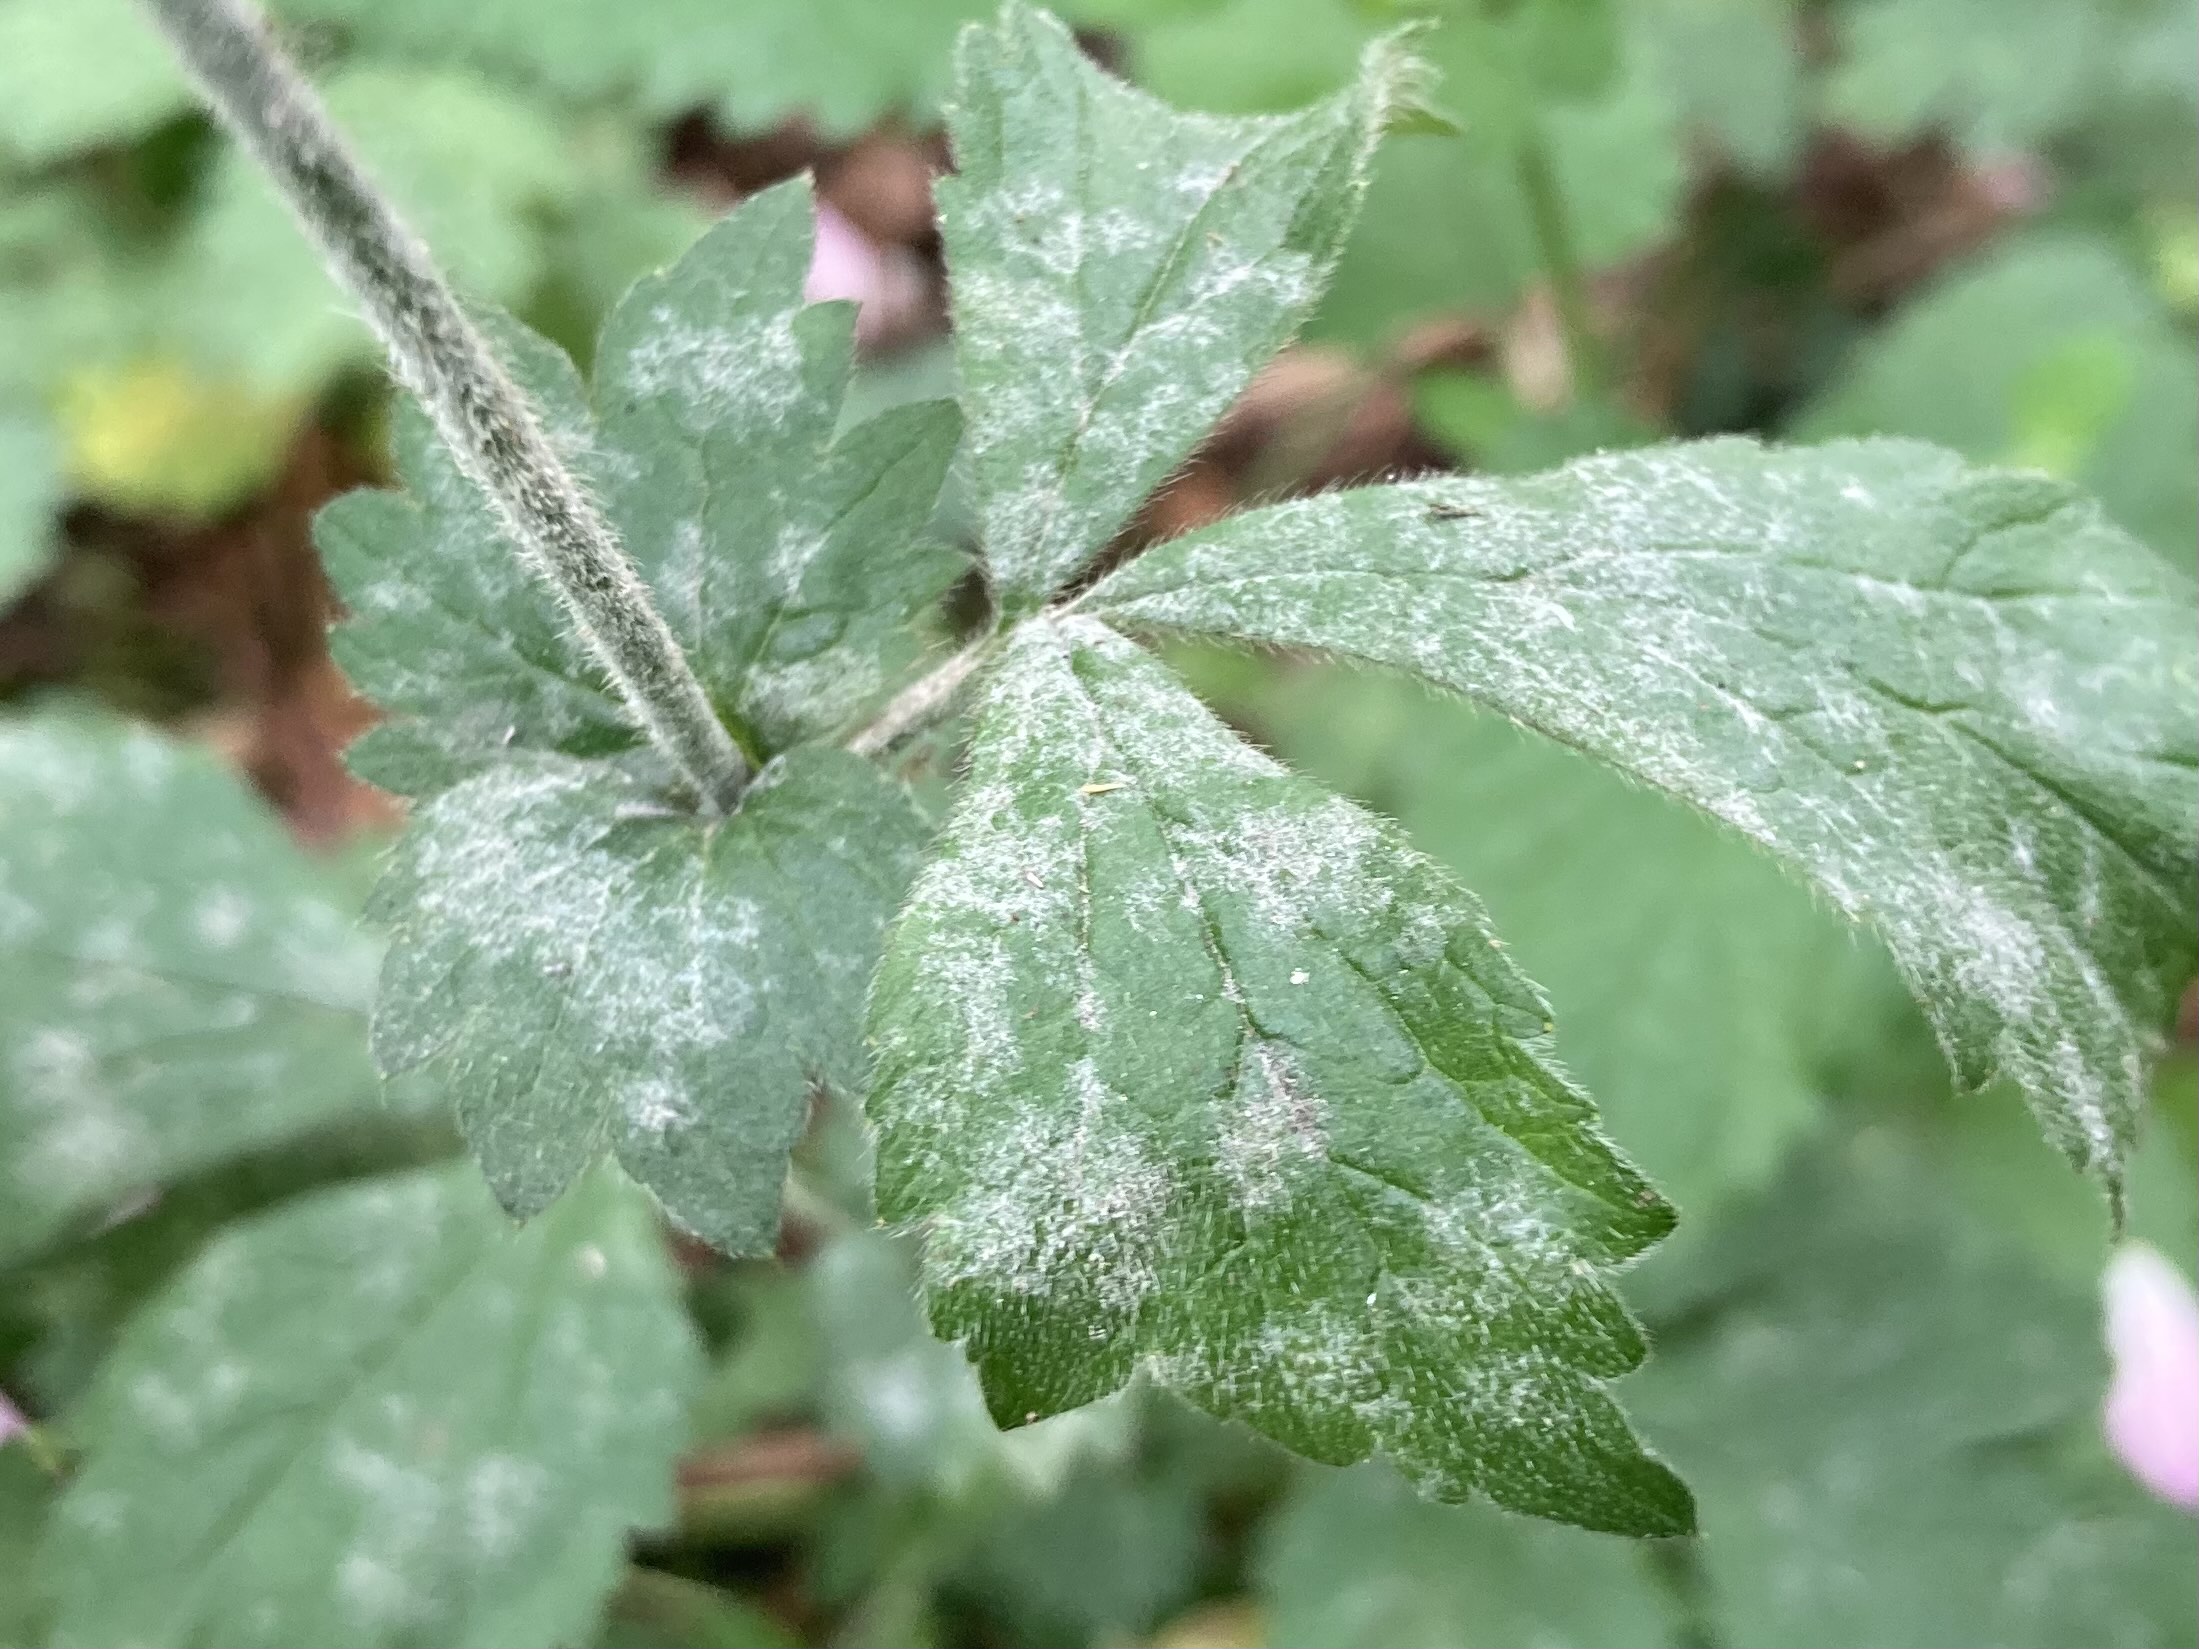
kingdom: Fungi
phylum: Ascomycota
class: Leotiomycetes
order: Helotiales
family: Erysiphaceae
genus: Podosphaera
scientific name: Podosphaera aphanis
